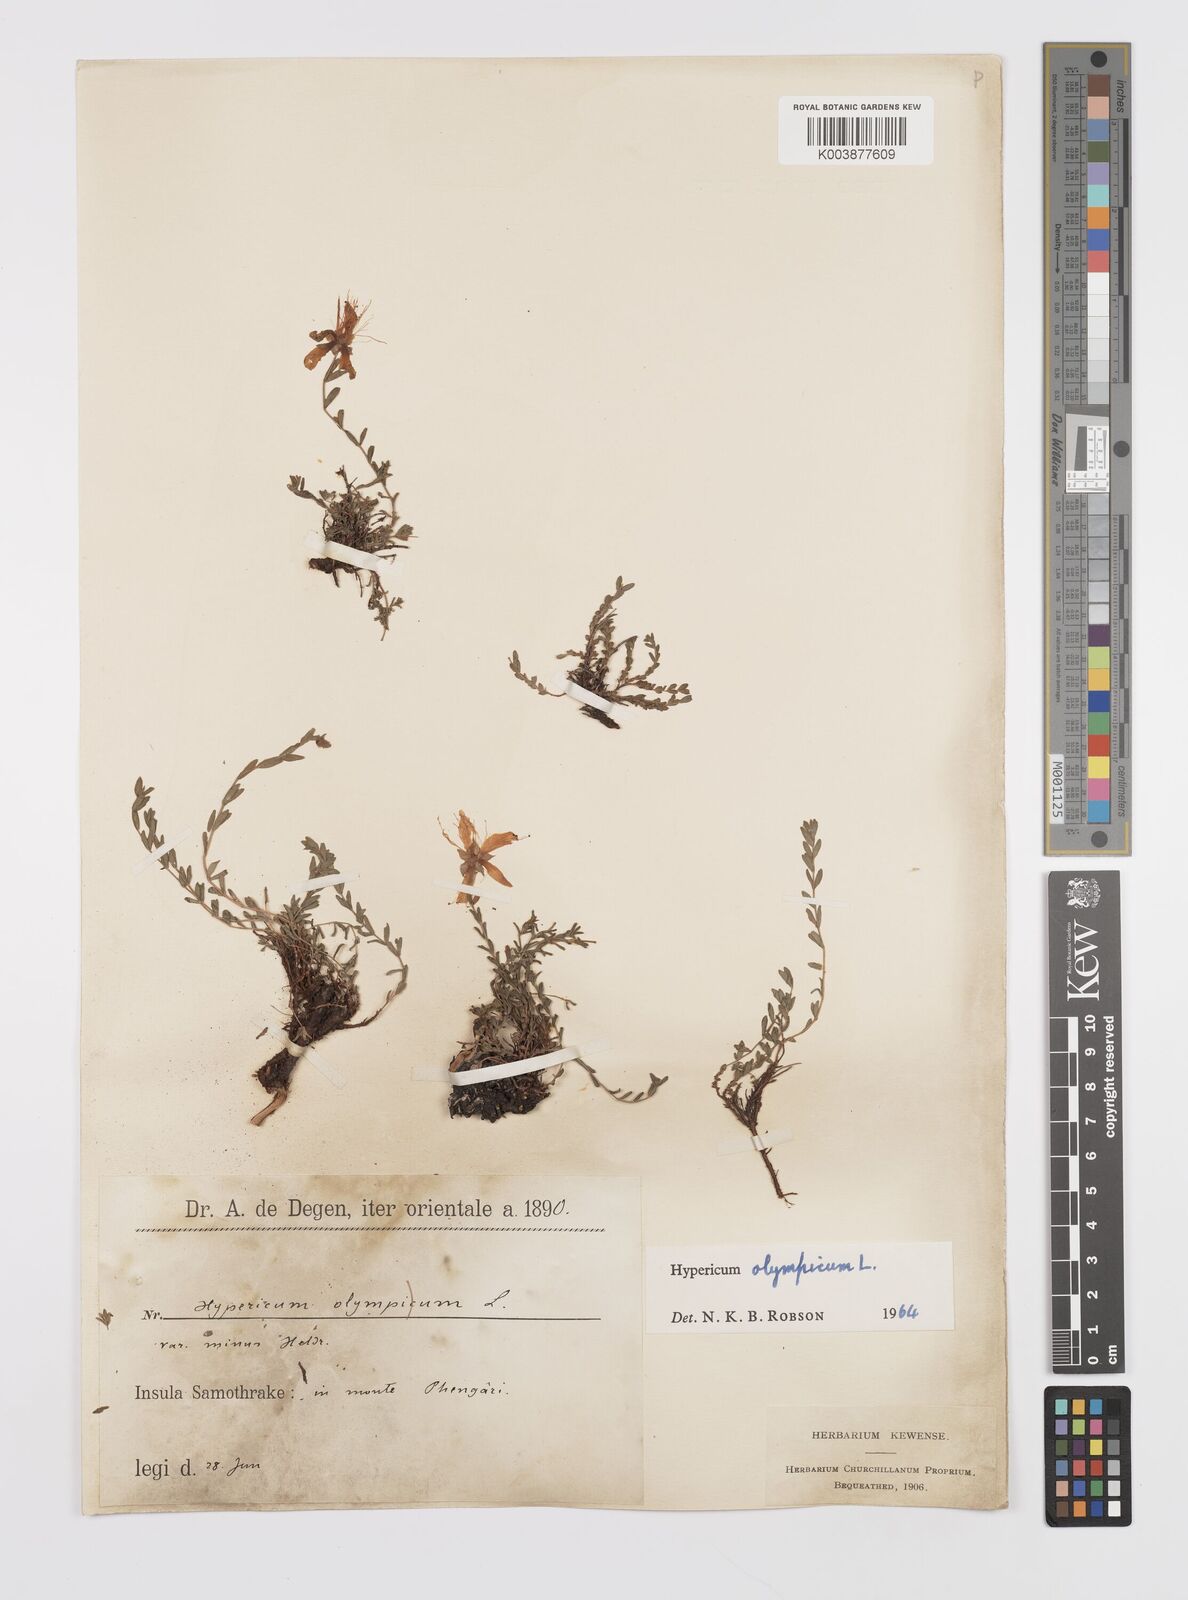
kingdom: Plantae
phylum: Tracheophyta
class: Magnoliopsida
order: Malpighiales
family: Hypericaceae
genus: Hypericum
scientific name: Hypericum olympicum
